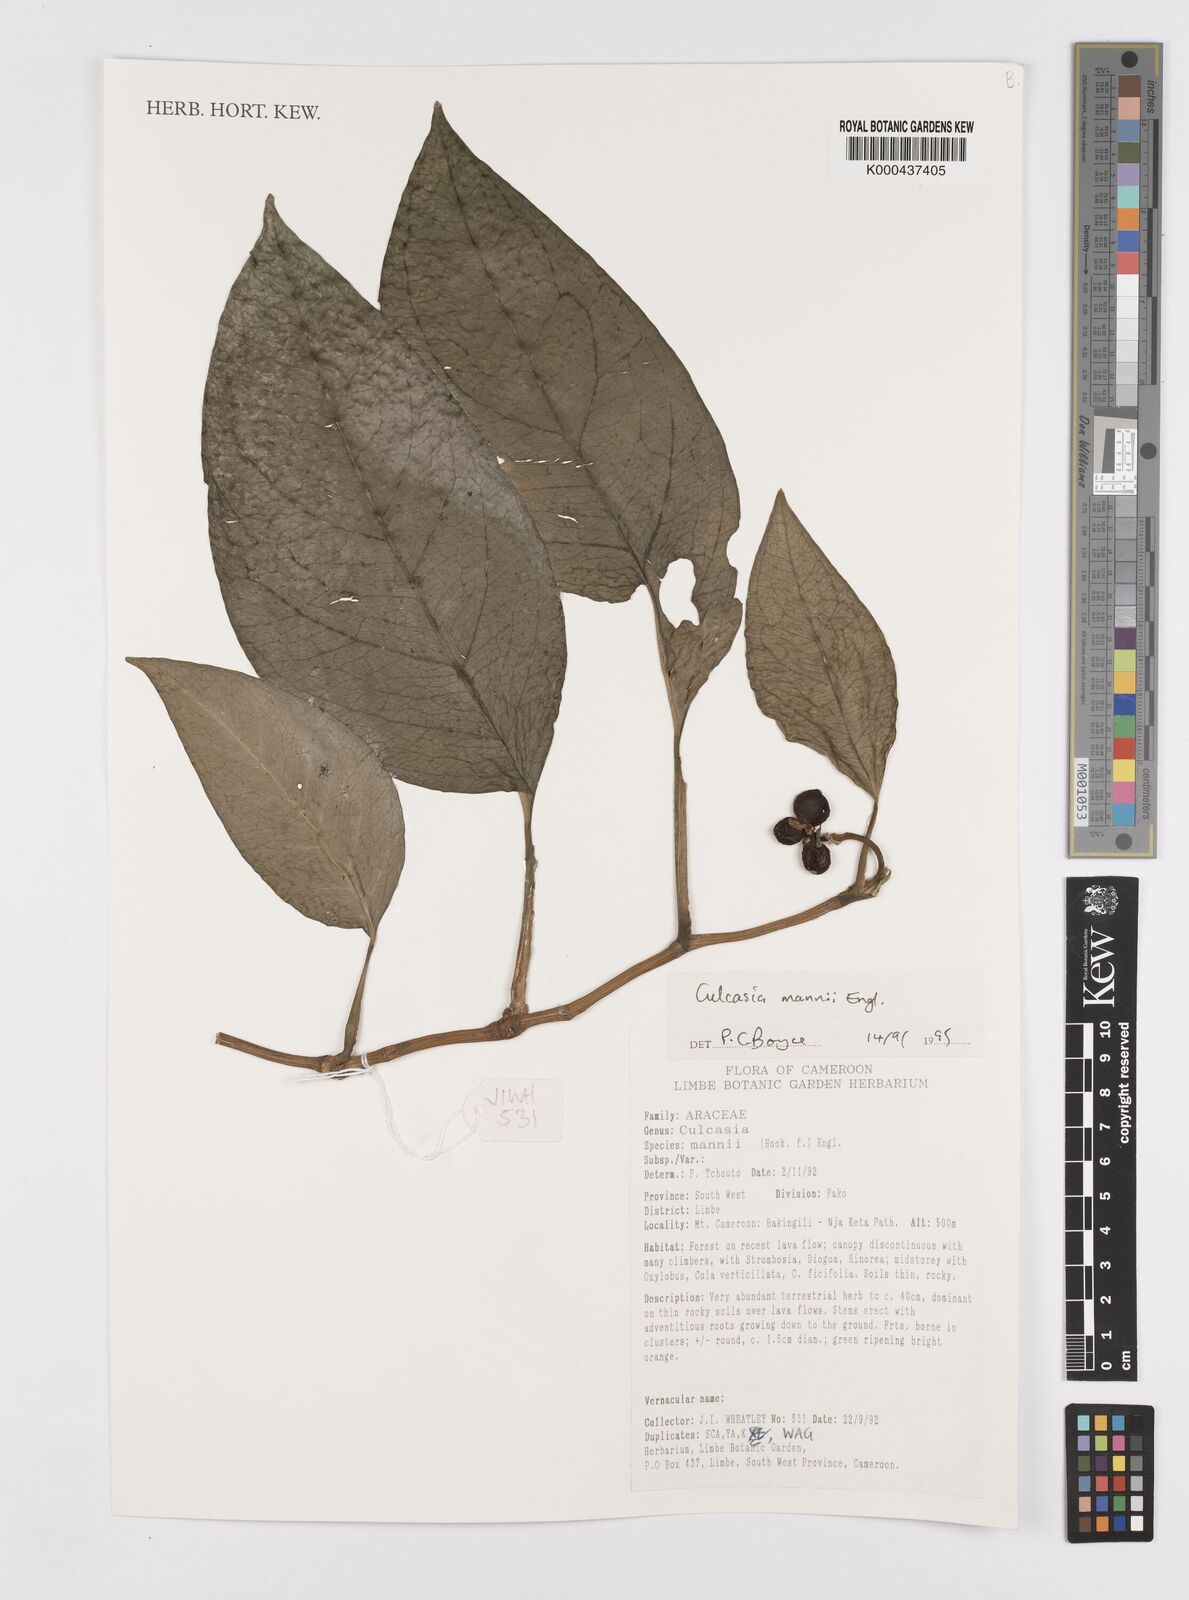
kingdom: Plantae
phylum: Tracheophyta
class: Liliopsida
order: Alismatales
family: Araceae
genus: Culcasia
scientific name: Culcasia mannii
